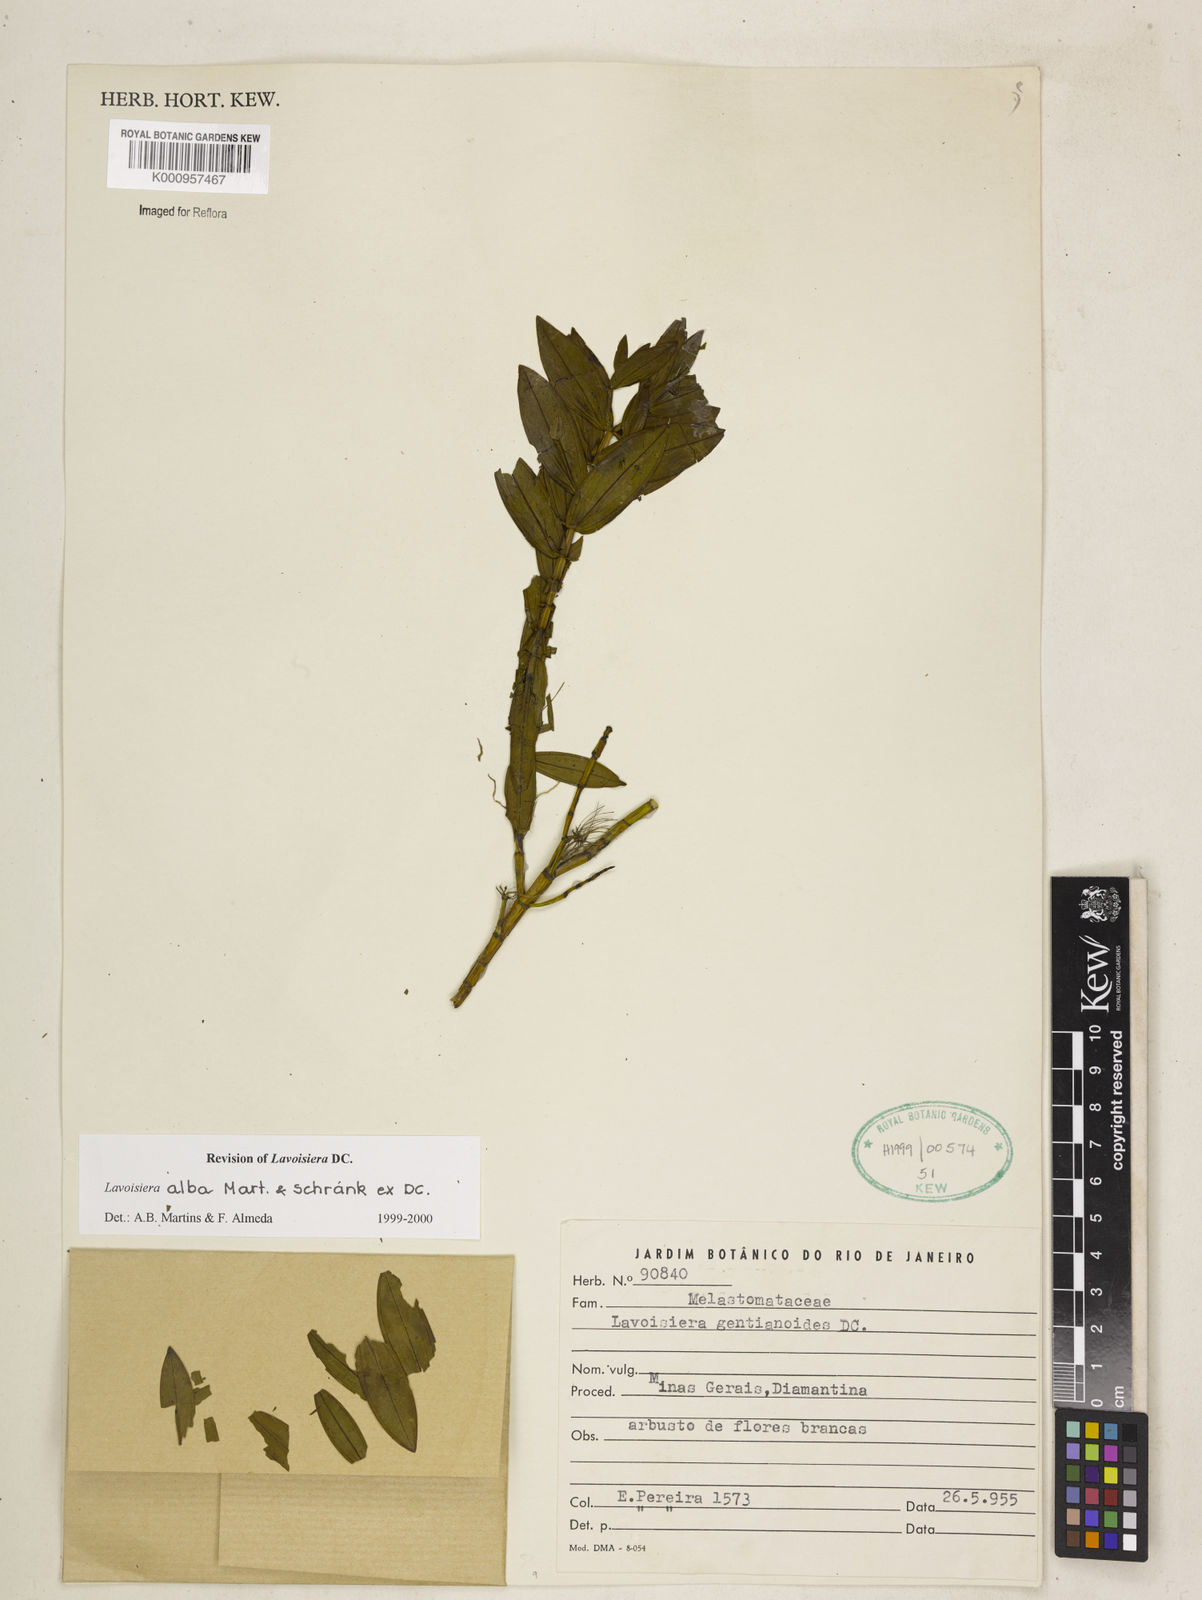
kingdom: Plantae
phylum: Tracheophyta
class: Magnoliopsida
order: Myrtales
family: Melastomataceae
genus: Microlicia
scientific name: Microlicia alba
